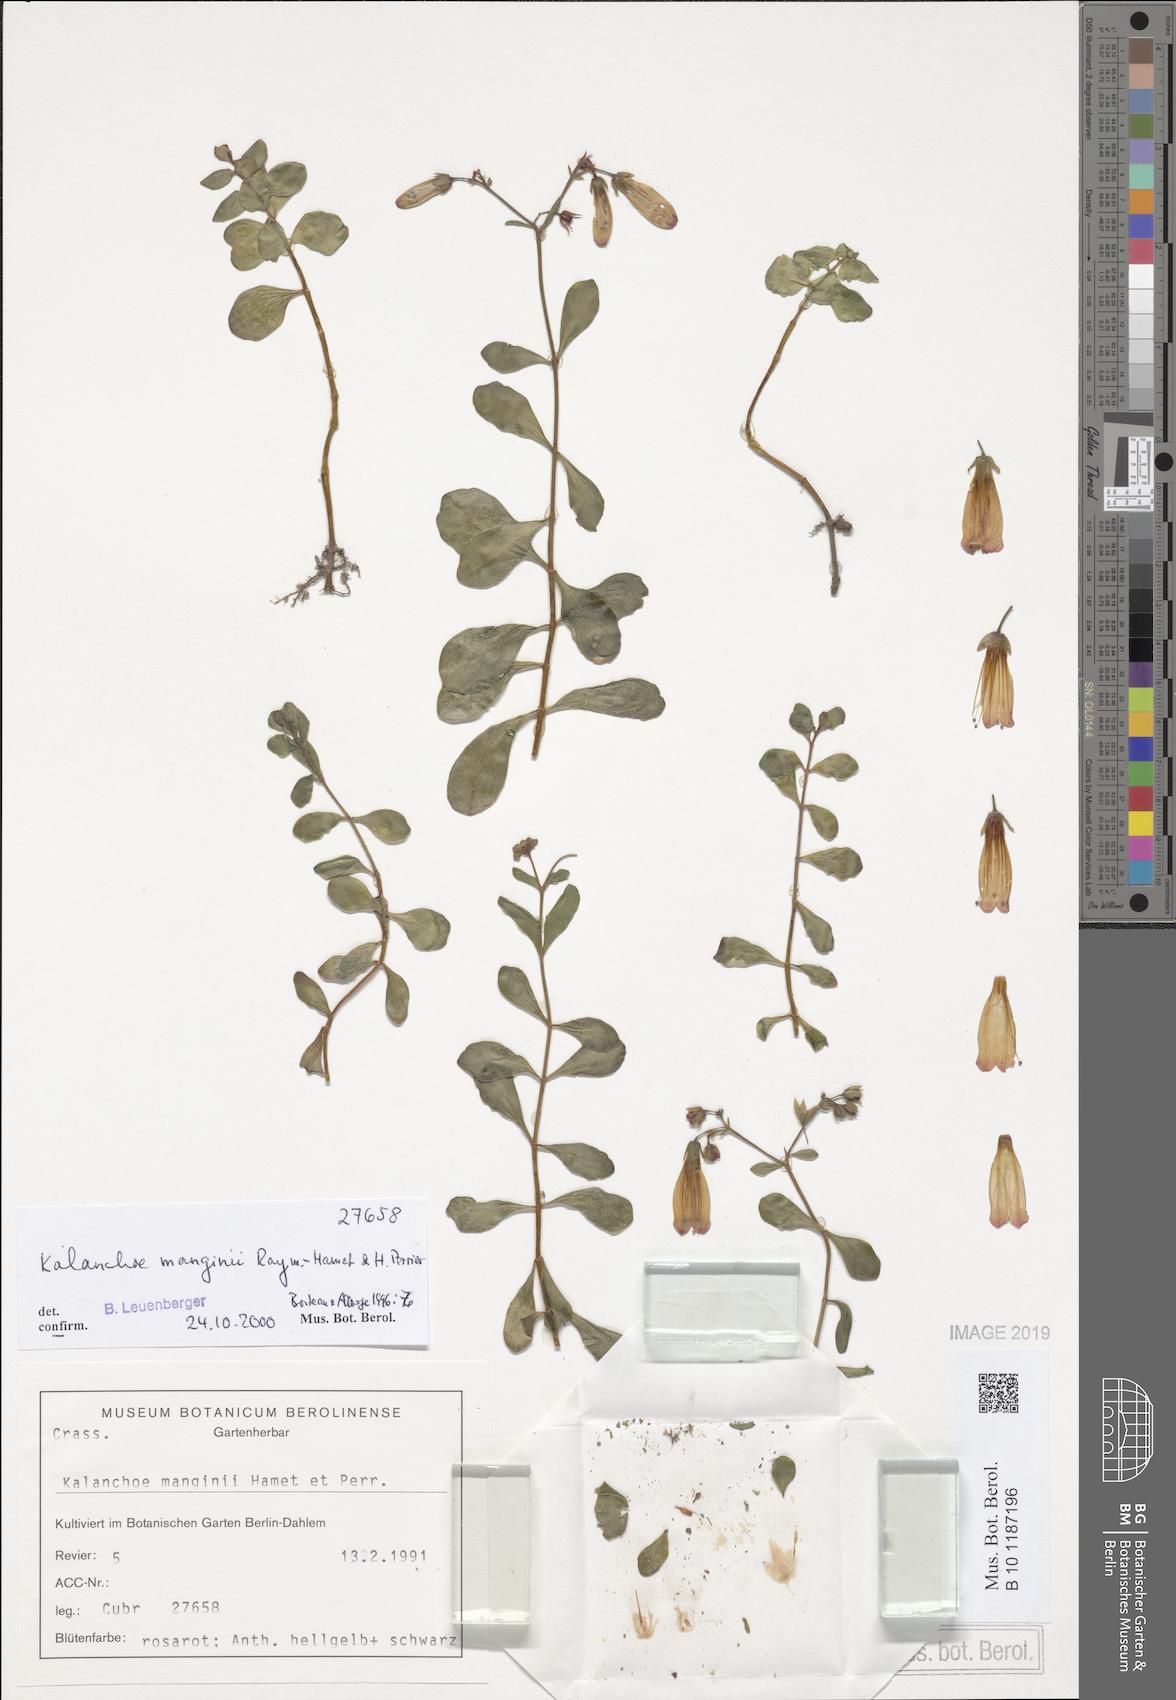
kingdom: Plantae
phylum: Tracheophyta
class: Magnoliopsida
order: Saxifragales
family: Crassulaceae
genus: Kalanchoe
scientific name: Kalanchoe manginii
